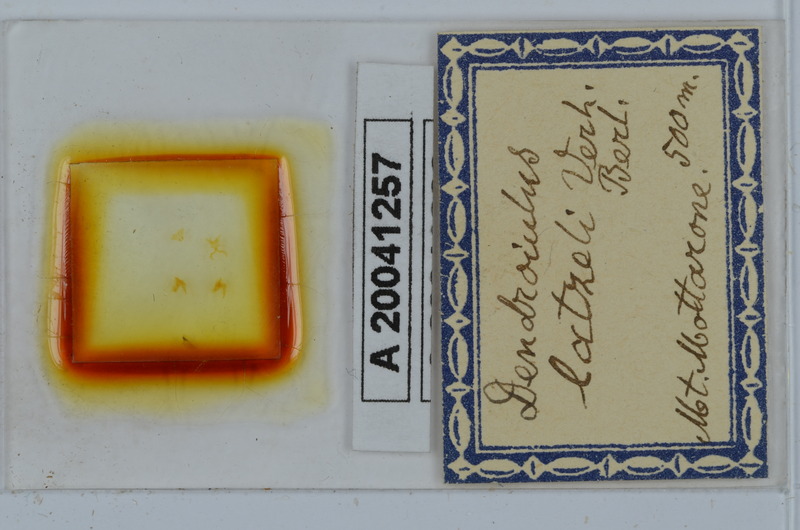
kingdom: Animalia
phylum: Arthropoda
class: Diplopoda
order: Julida
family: Julidae
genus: Cylindroiulus
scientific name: Cylindroiulus latzeli
